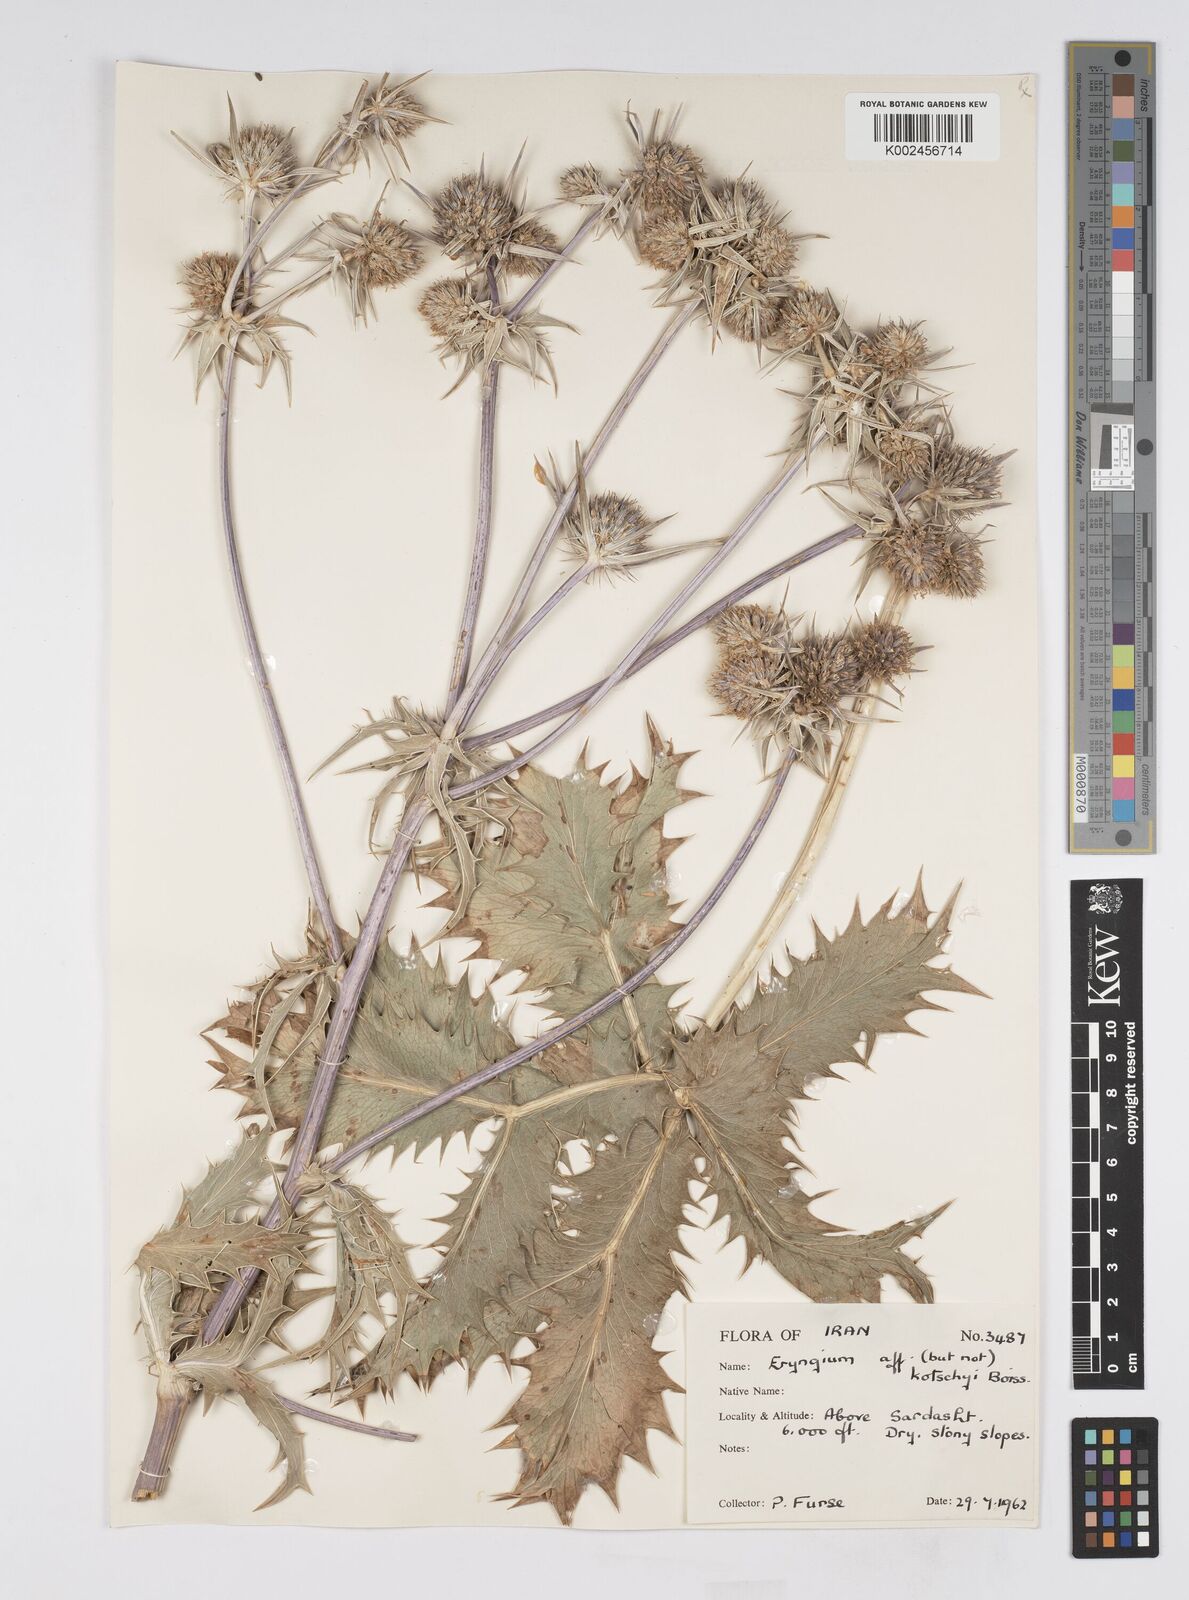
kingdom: Plantae
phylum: Tracheophyta
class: Magnoliopsida
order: Apiales
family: Apiaceae
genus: Eryngium
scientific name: Eryngium kotschyi
